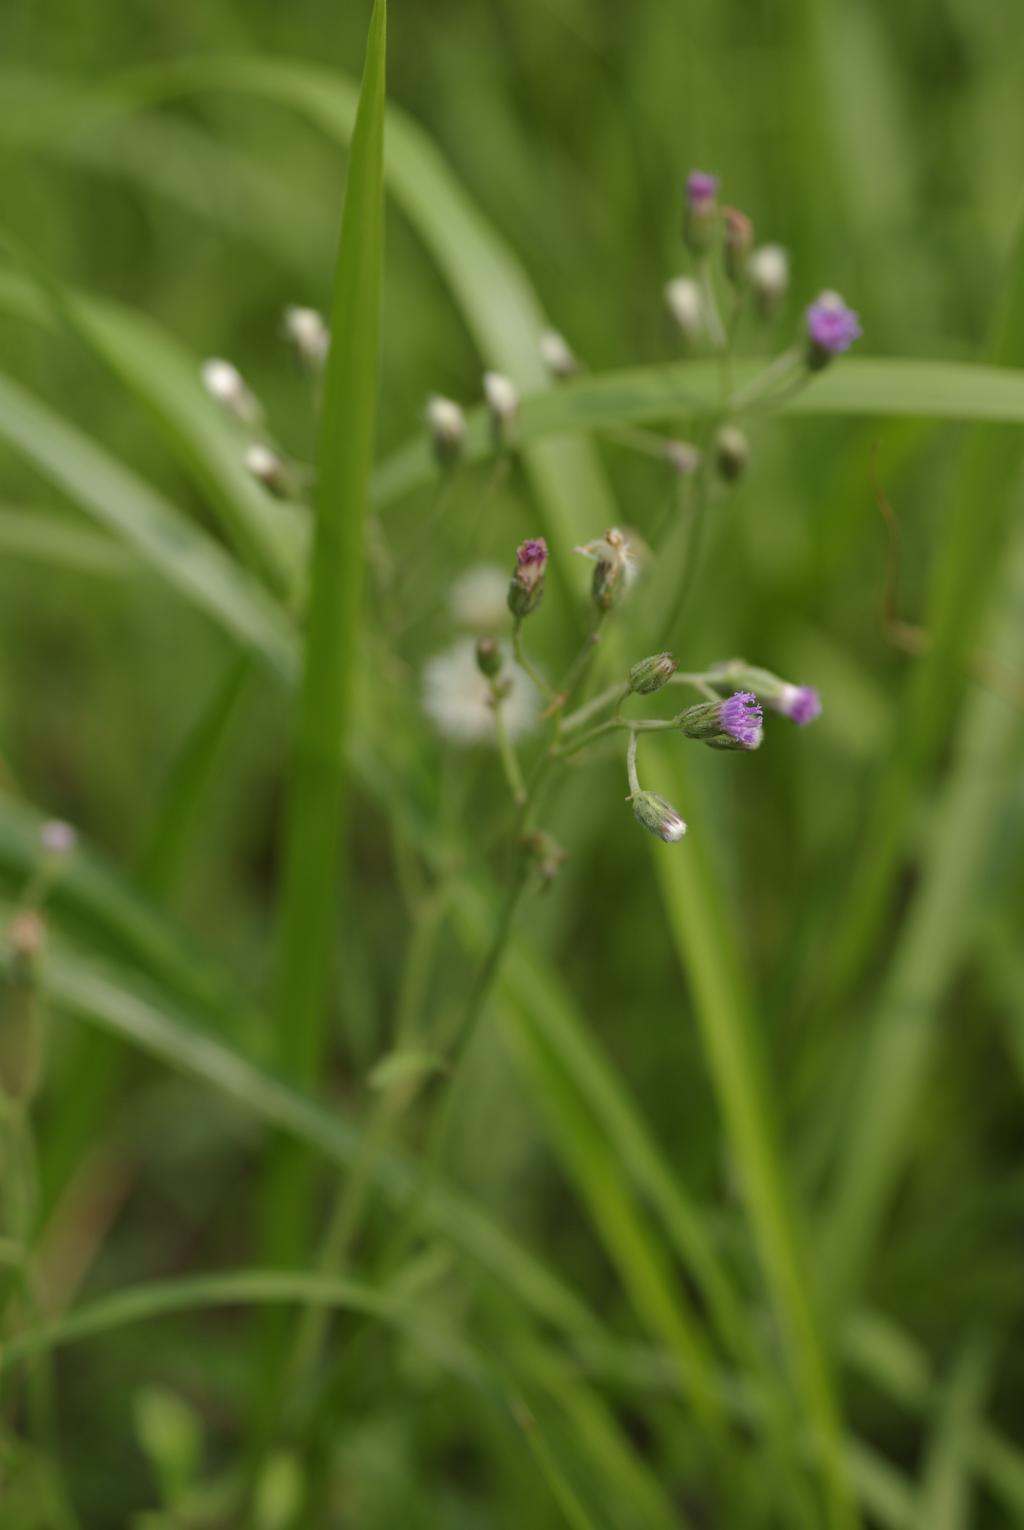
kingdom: Plantae
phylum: Tracheophyta
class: Magnoliopsida
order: Asterales
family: Asteraceae
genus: Cyanthillium
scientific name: Cyanthillium cinereum
